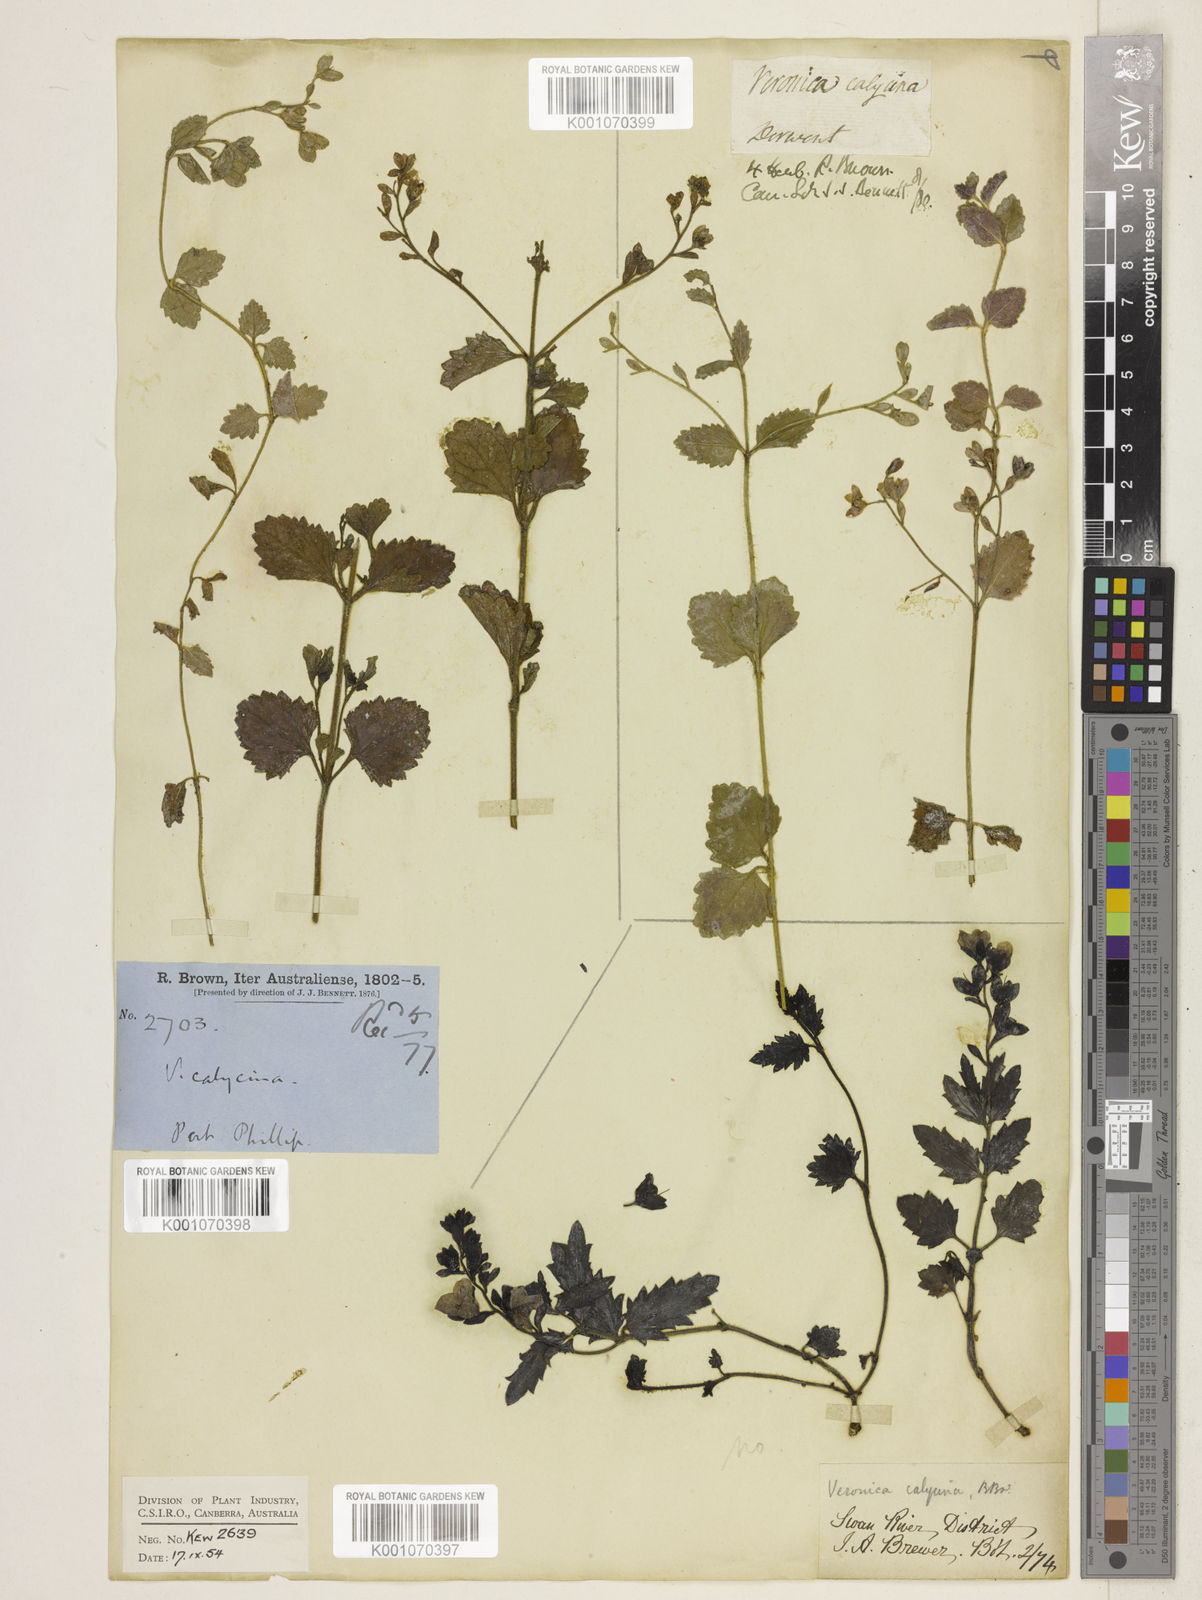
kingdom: Plantae
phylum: Tracheophyta
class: Magnoliopsida
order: Lamiales
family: Plantaginaceae
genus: Veronica
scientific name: Veronica calycina
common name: Cup speedwell
